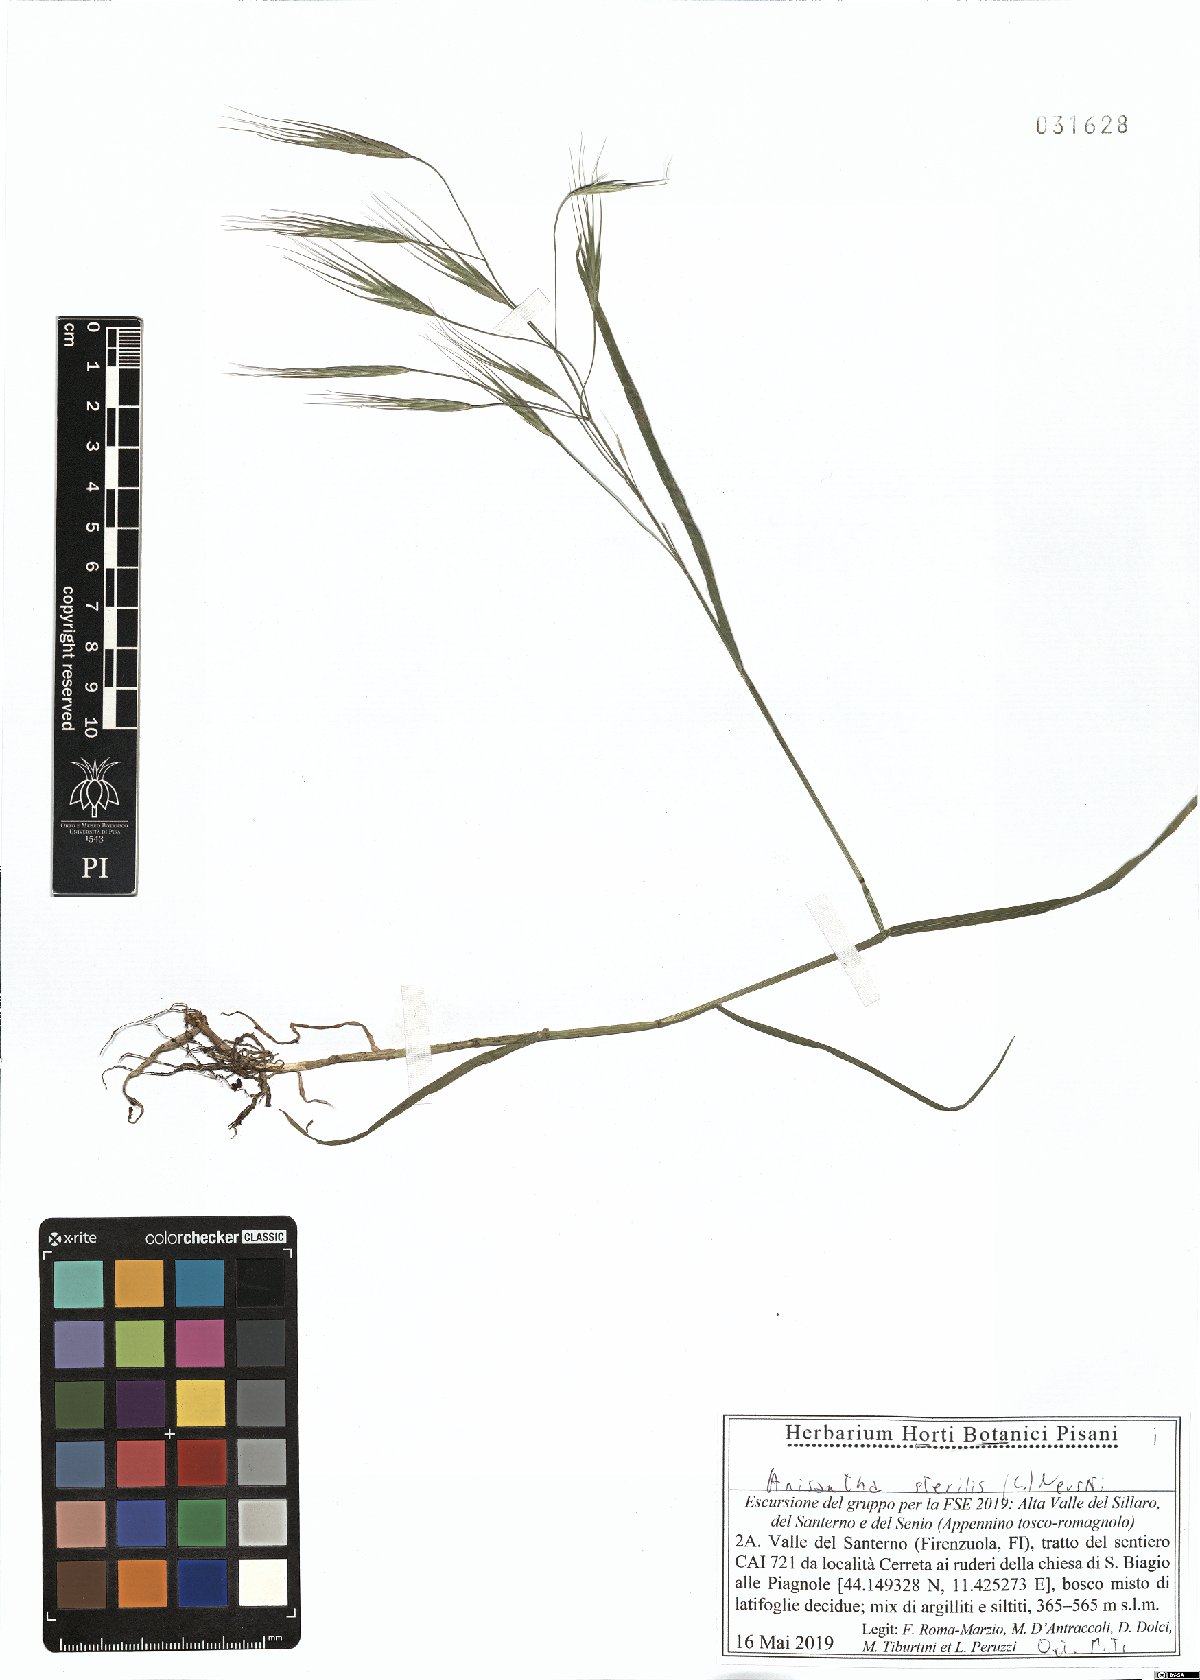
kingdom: Plantae
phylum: Tracheophyta
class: Liliopsida
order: Poales
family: Poaceae
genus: Bromus
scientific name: Bromus sterilis
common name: Poverty brome
